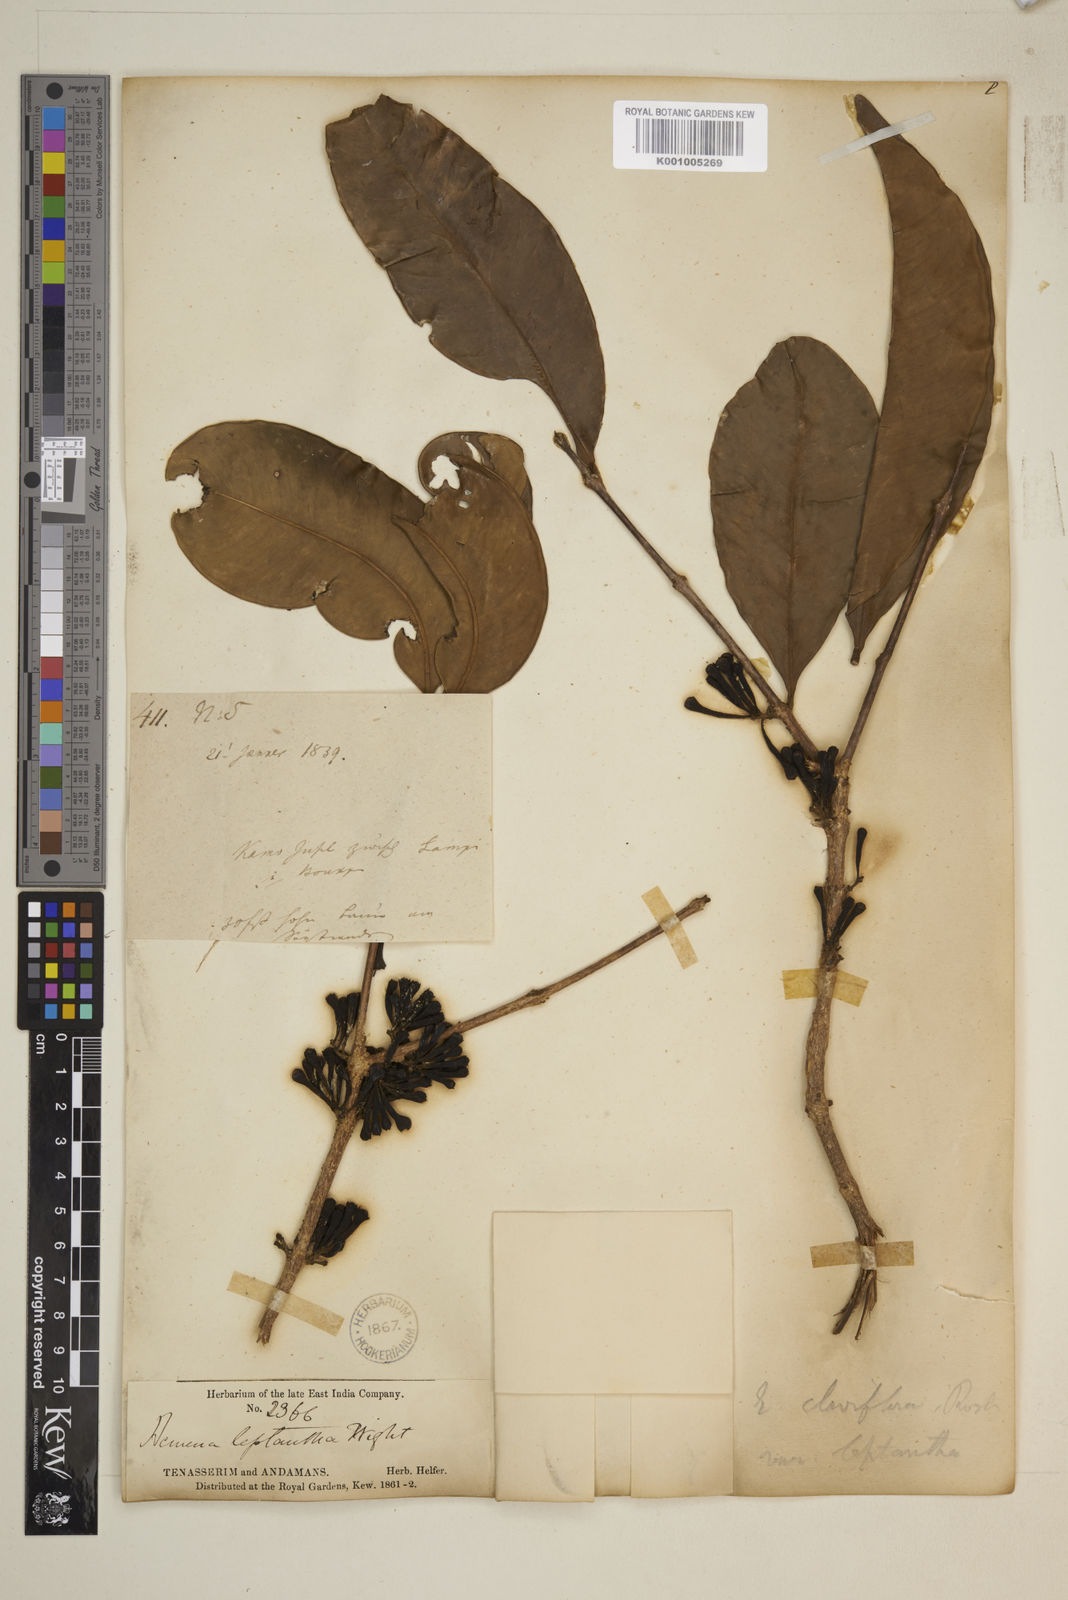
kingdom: Plantae
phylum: Tracheophyta
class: Magnoliopsida
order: Myrtales
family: Myrtaceae
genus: Syzygium
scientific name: Syzygium claviflorum
